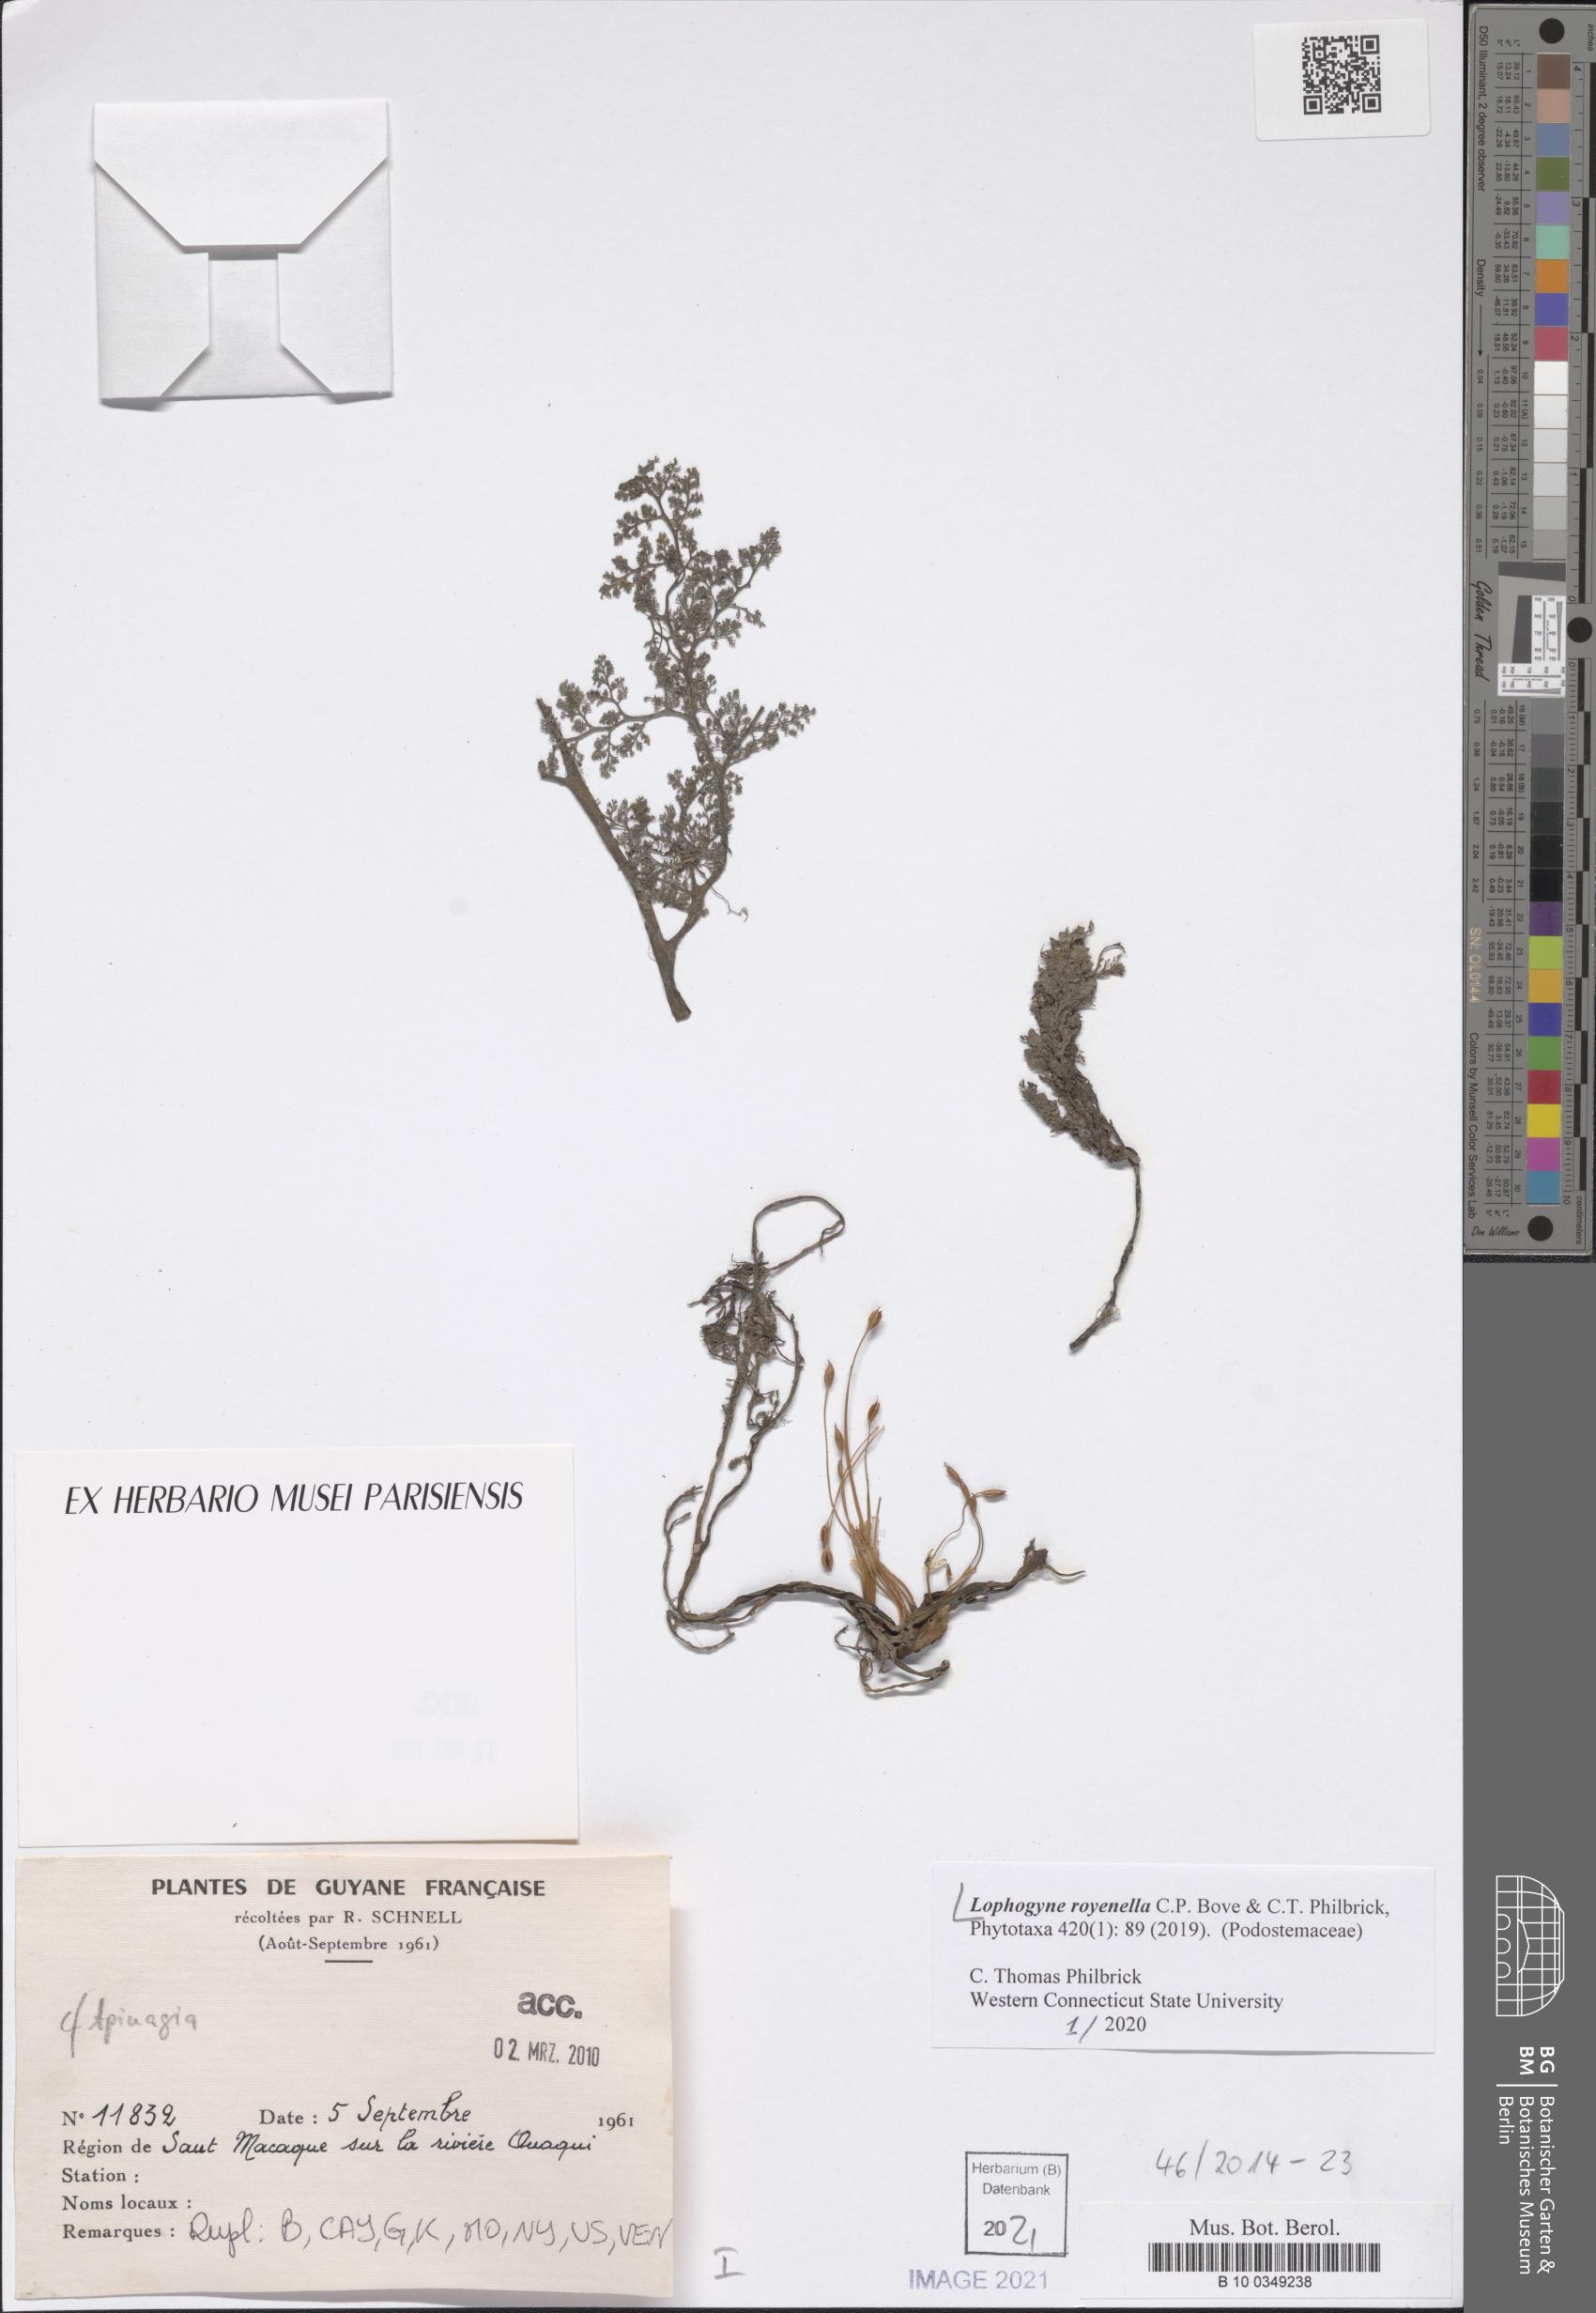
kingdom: Plantae
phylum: Tracheophyta
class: Magnoliopsida
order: Malpighiales
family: Podostemaceae
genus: Lophogyne
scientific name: Lophogyne royenella
